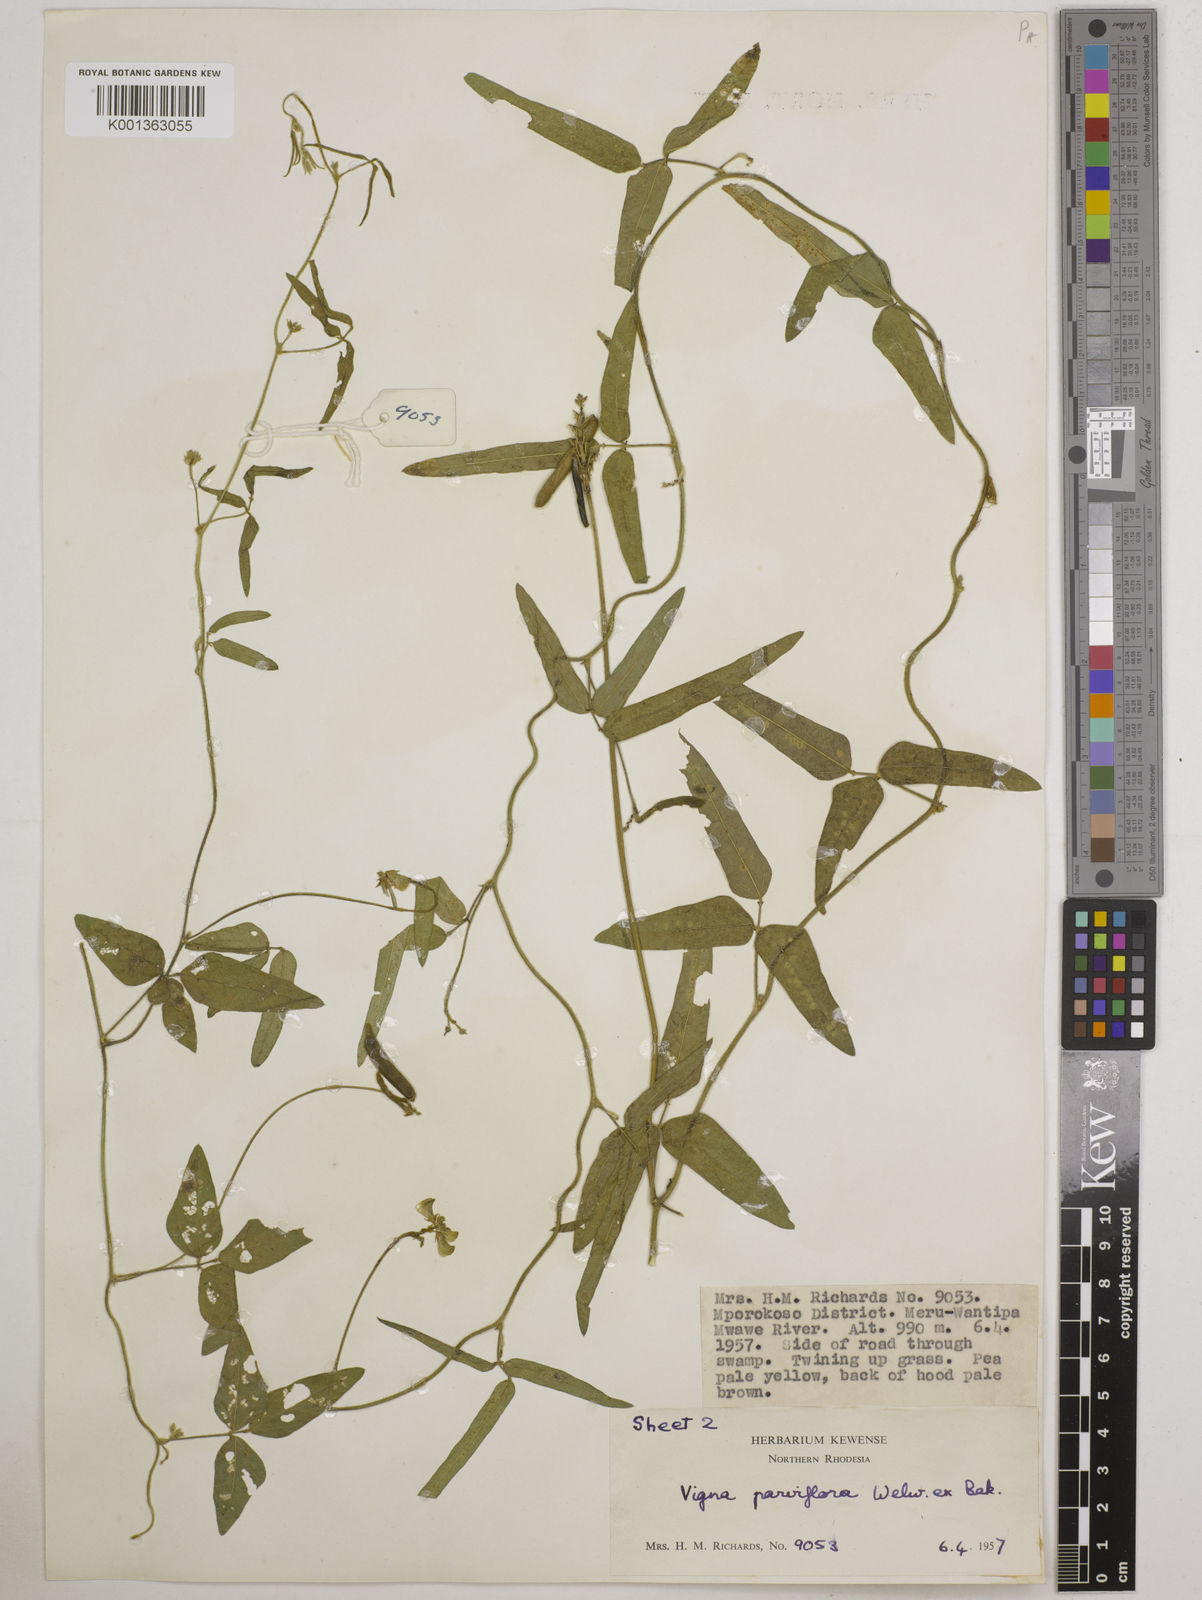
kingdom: Plantae
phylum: Tracheophyta
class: Magnoliopsida
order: Fabales
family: Fabaceae
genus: Vigna
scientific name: Vigna
